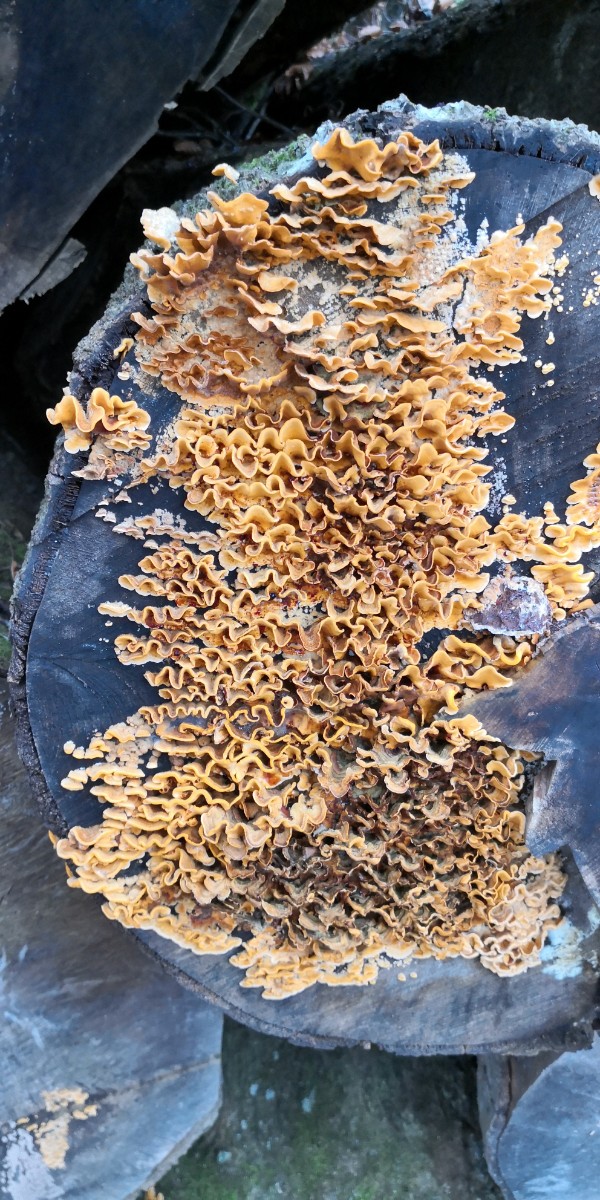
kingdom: Fungi
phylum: Basidiomycota
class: Agaricomycetes
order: Russulales
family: Stereaceae
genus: Stereum
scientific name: Stereum hirsutum
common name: håret lædersvamp
